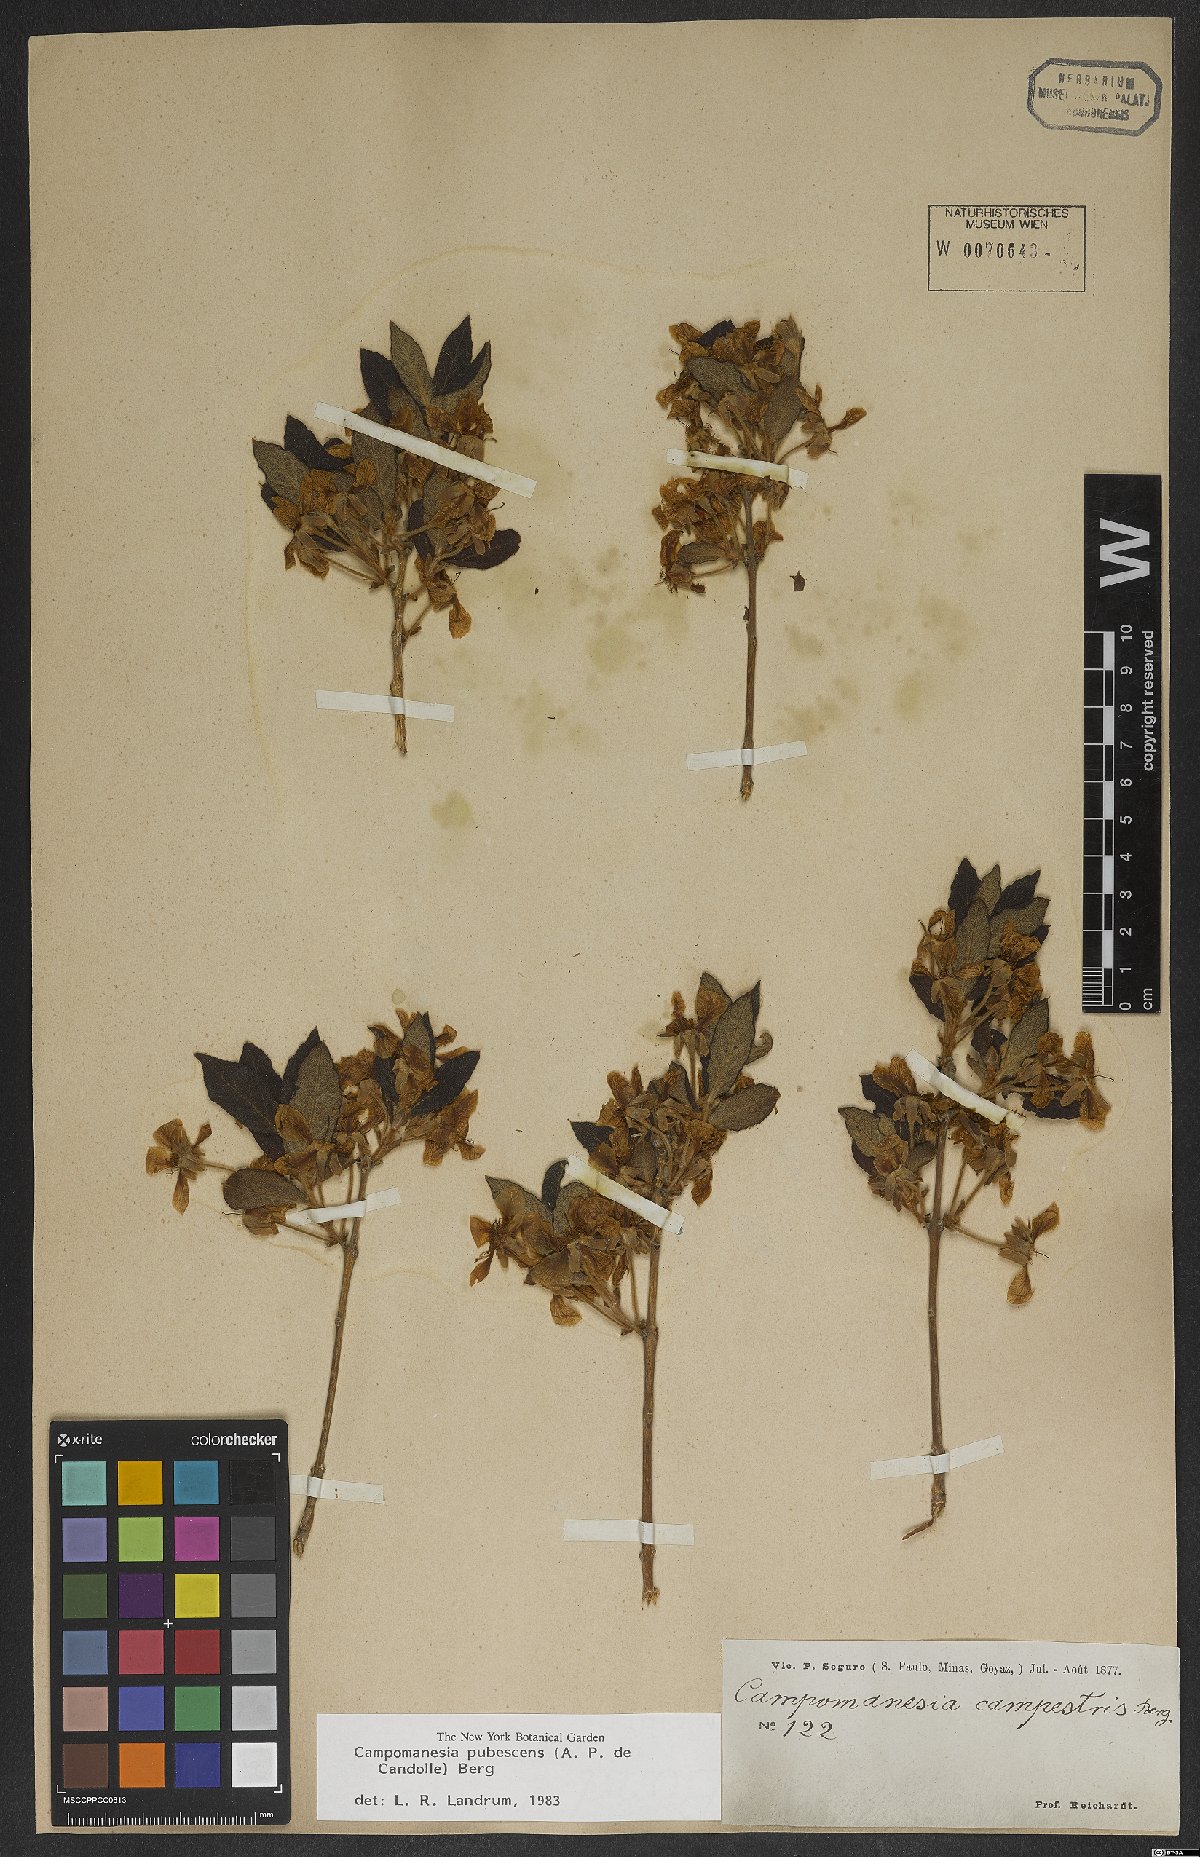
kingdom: Plantae
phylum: Tracheophyta
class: Magnoliopsida
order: Myrtales
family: Myrtaceae
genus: Campomanesia
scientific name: Campomanesia pubescens
